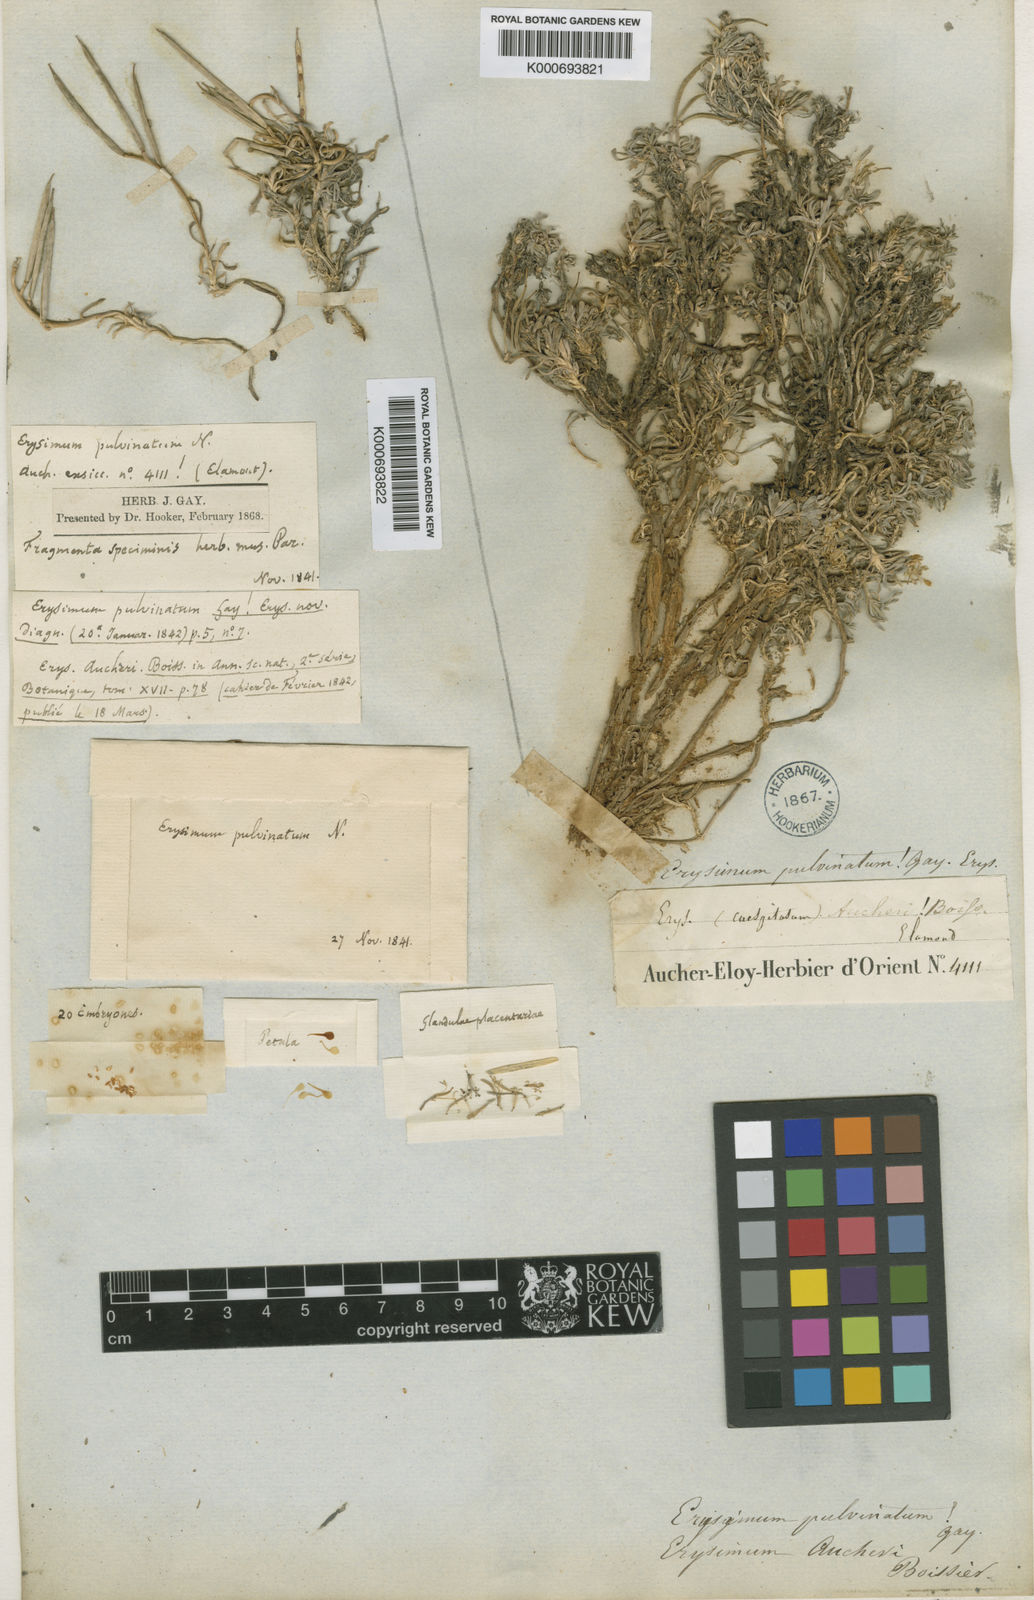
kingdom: Plantae
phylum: Tracheophyta
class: Magnoliopsida
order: Brassicales
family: Brassicaceae
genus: Erysimum
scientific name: Erysimum caespitosum
